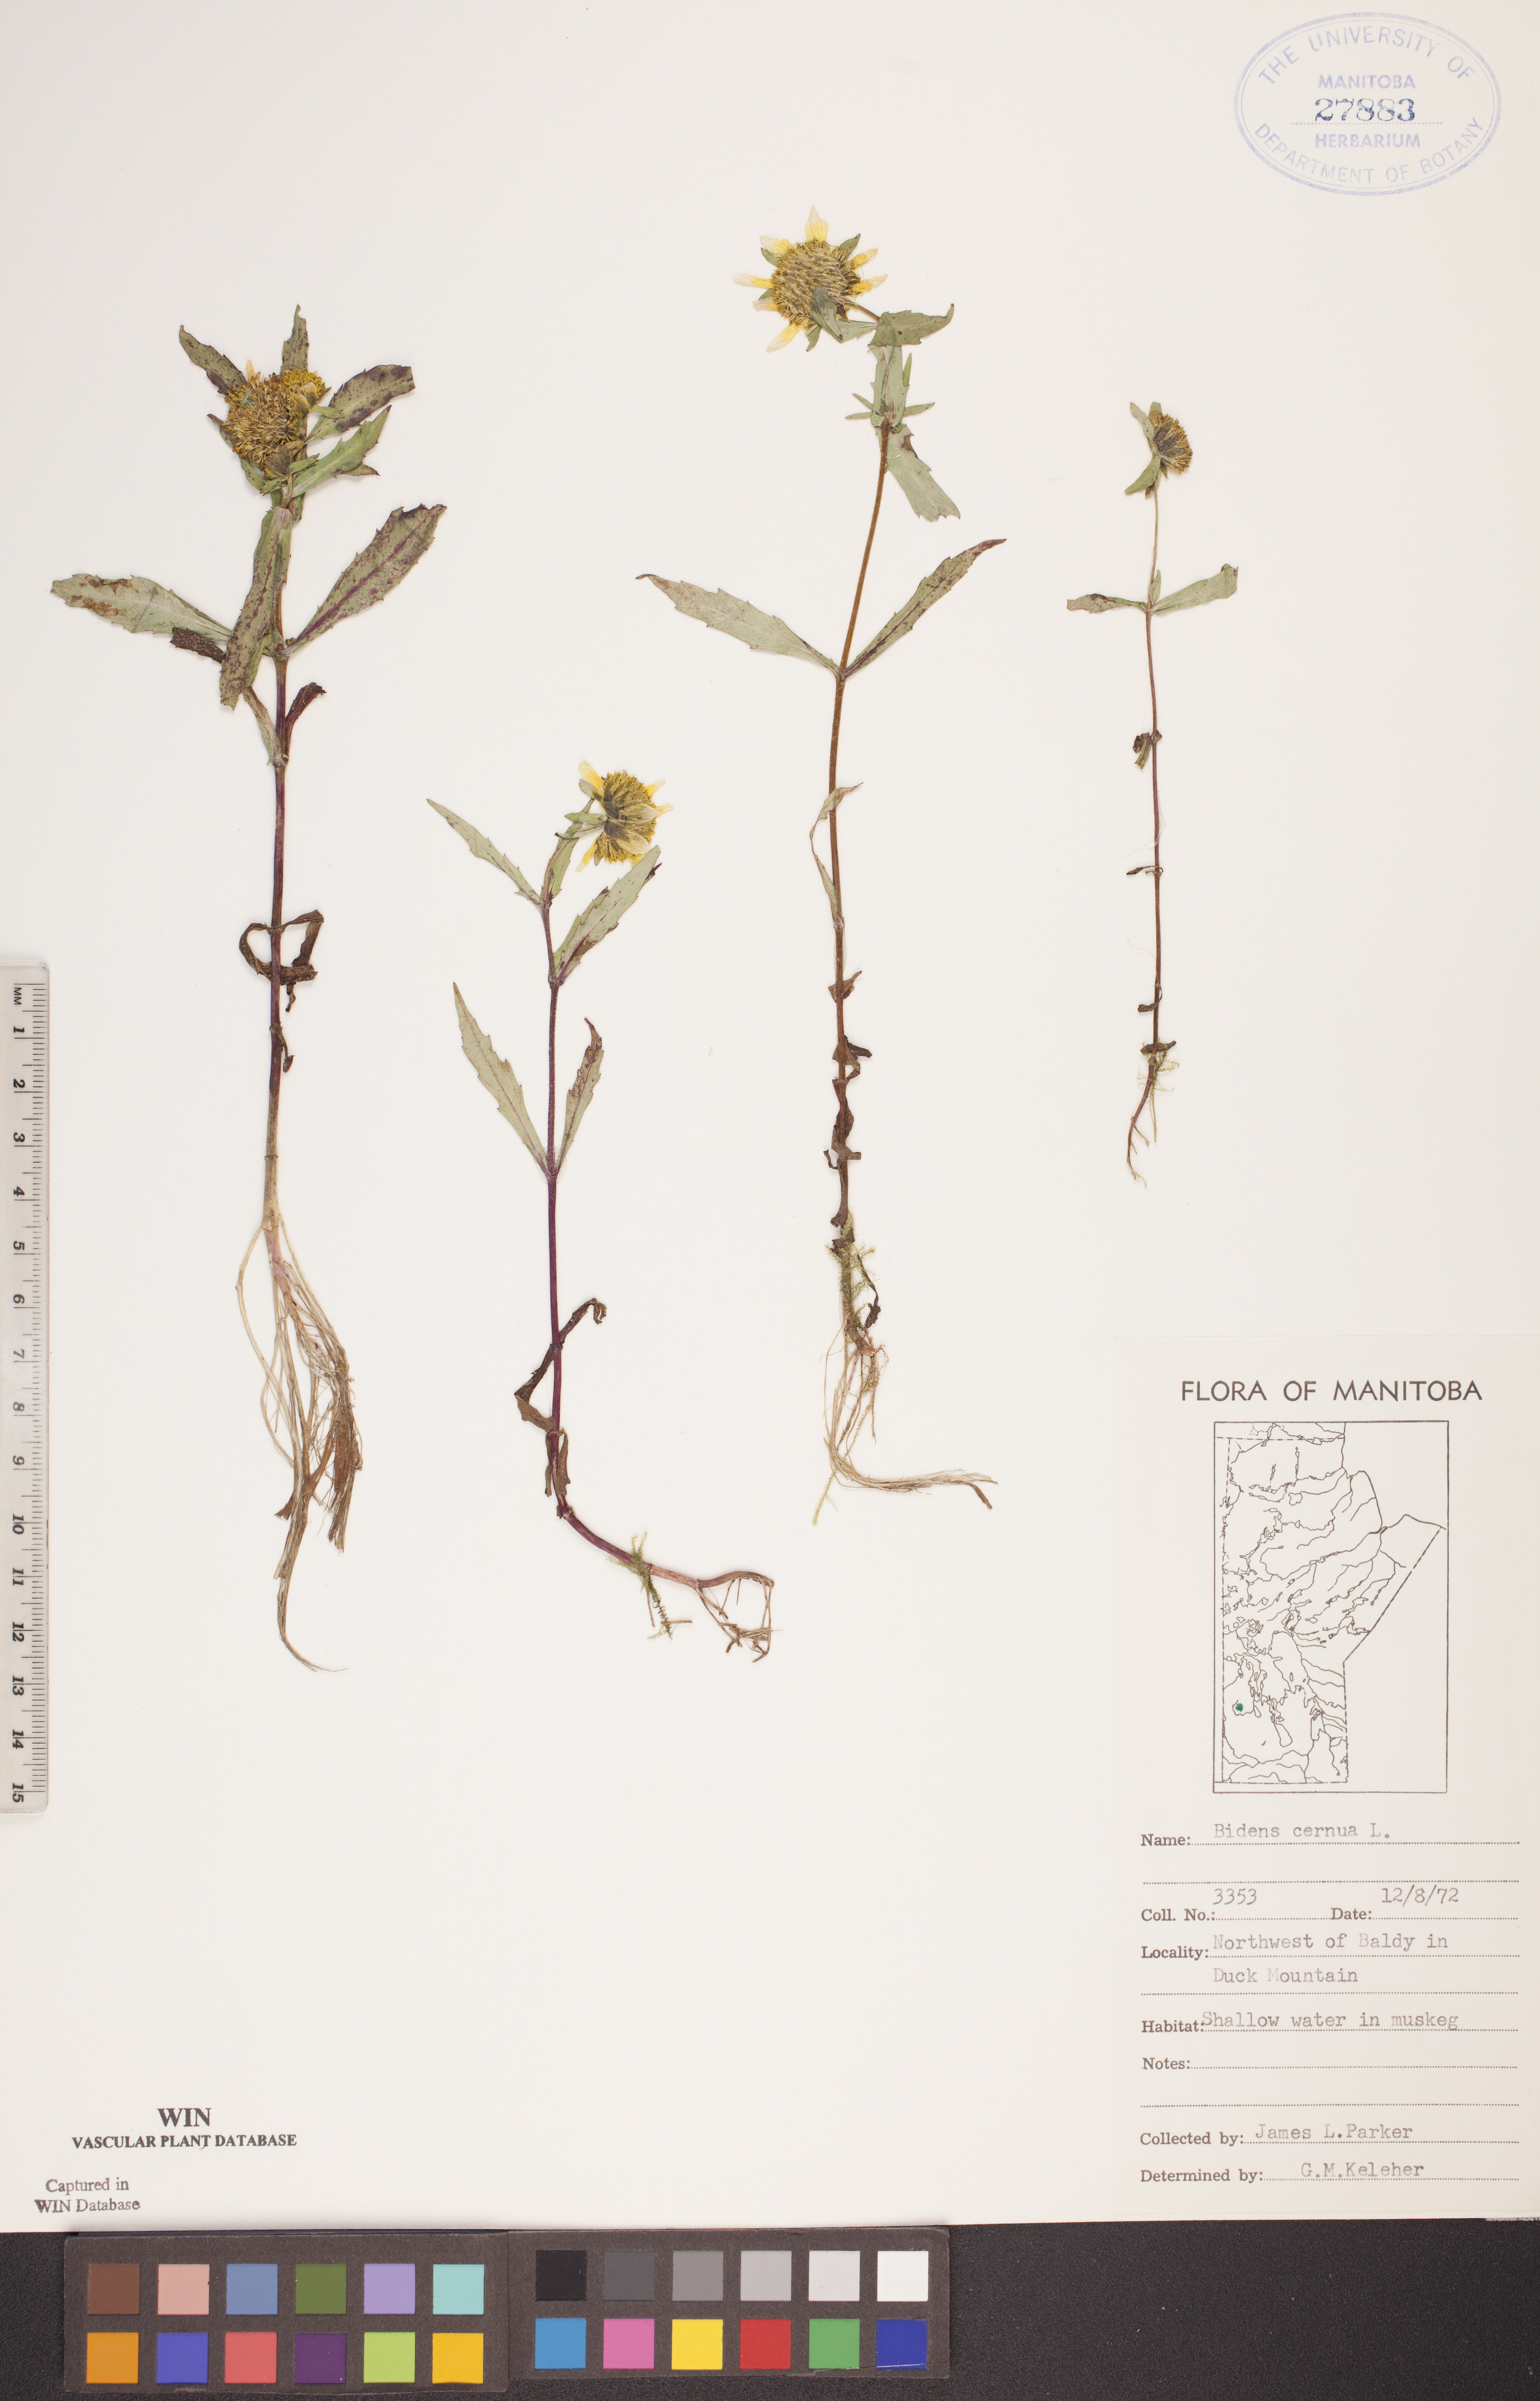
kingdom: Plantae
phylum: Tracheophyta
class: Magnoliopsida
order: Asterales
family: Asteraceae
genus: Bidens
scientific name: Bidens cernua
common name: Nodding bur-marigold
